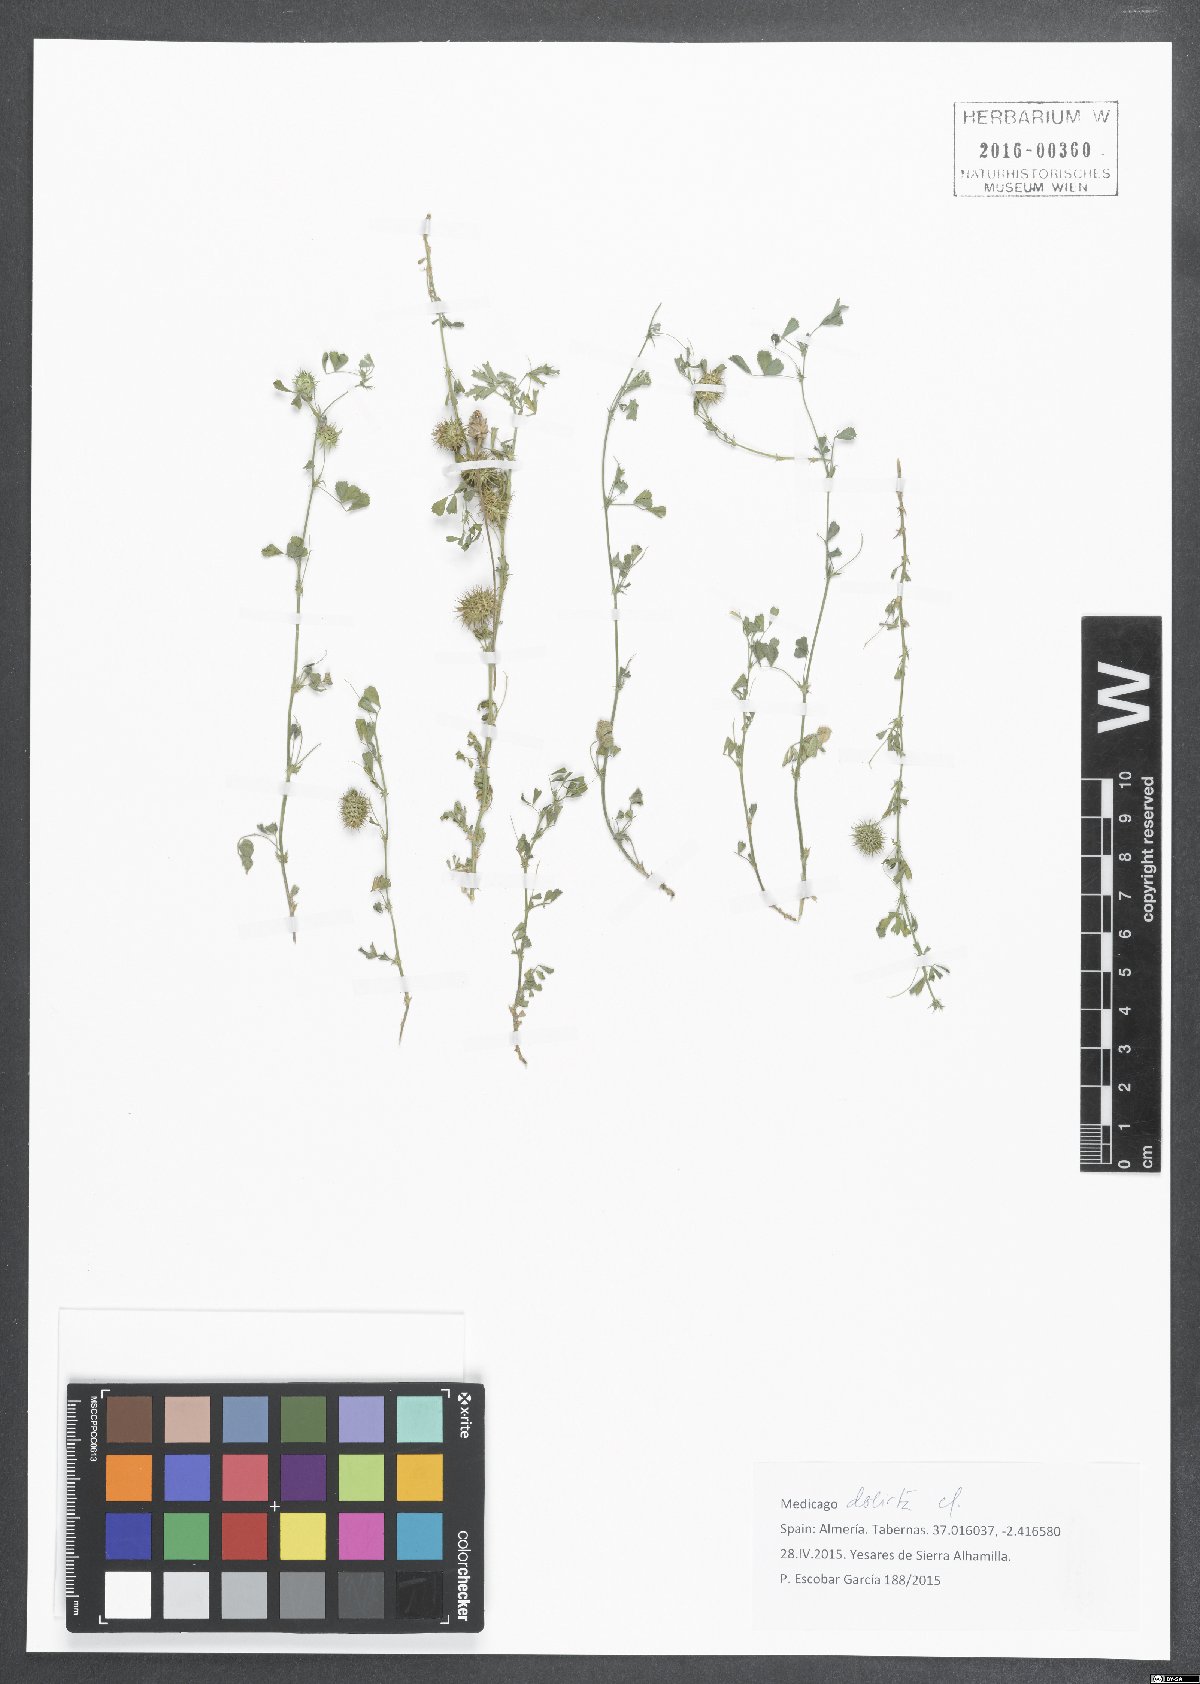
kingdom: Plantae
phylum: Tracheophyta
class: Magnoliopsida
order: Fabales
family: Fabaceae
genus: Medicago
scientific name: Medicago laciniata
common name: Tattered medick
